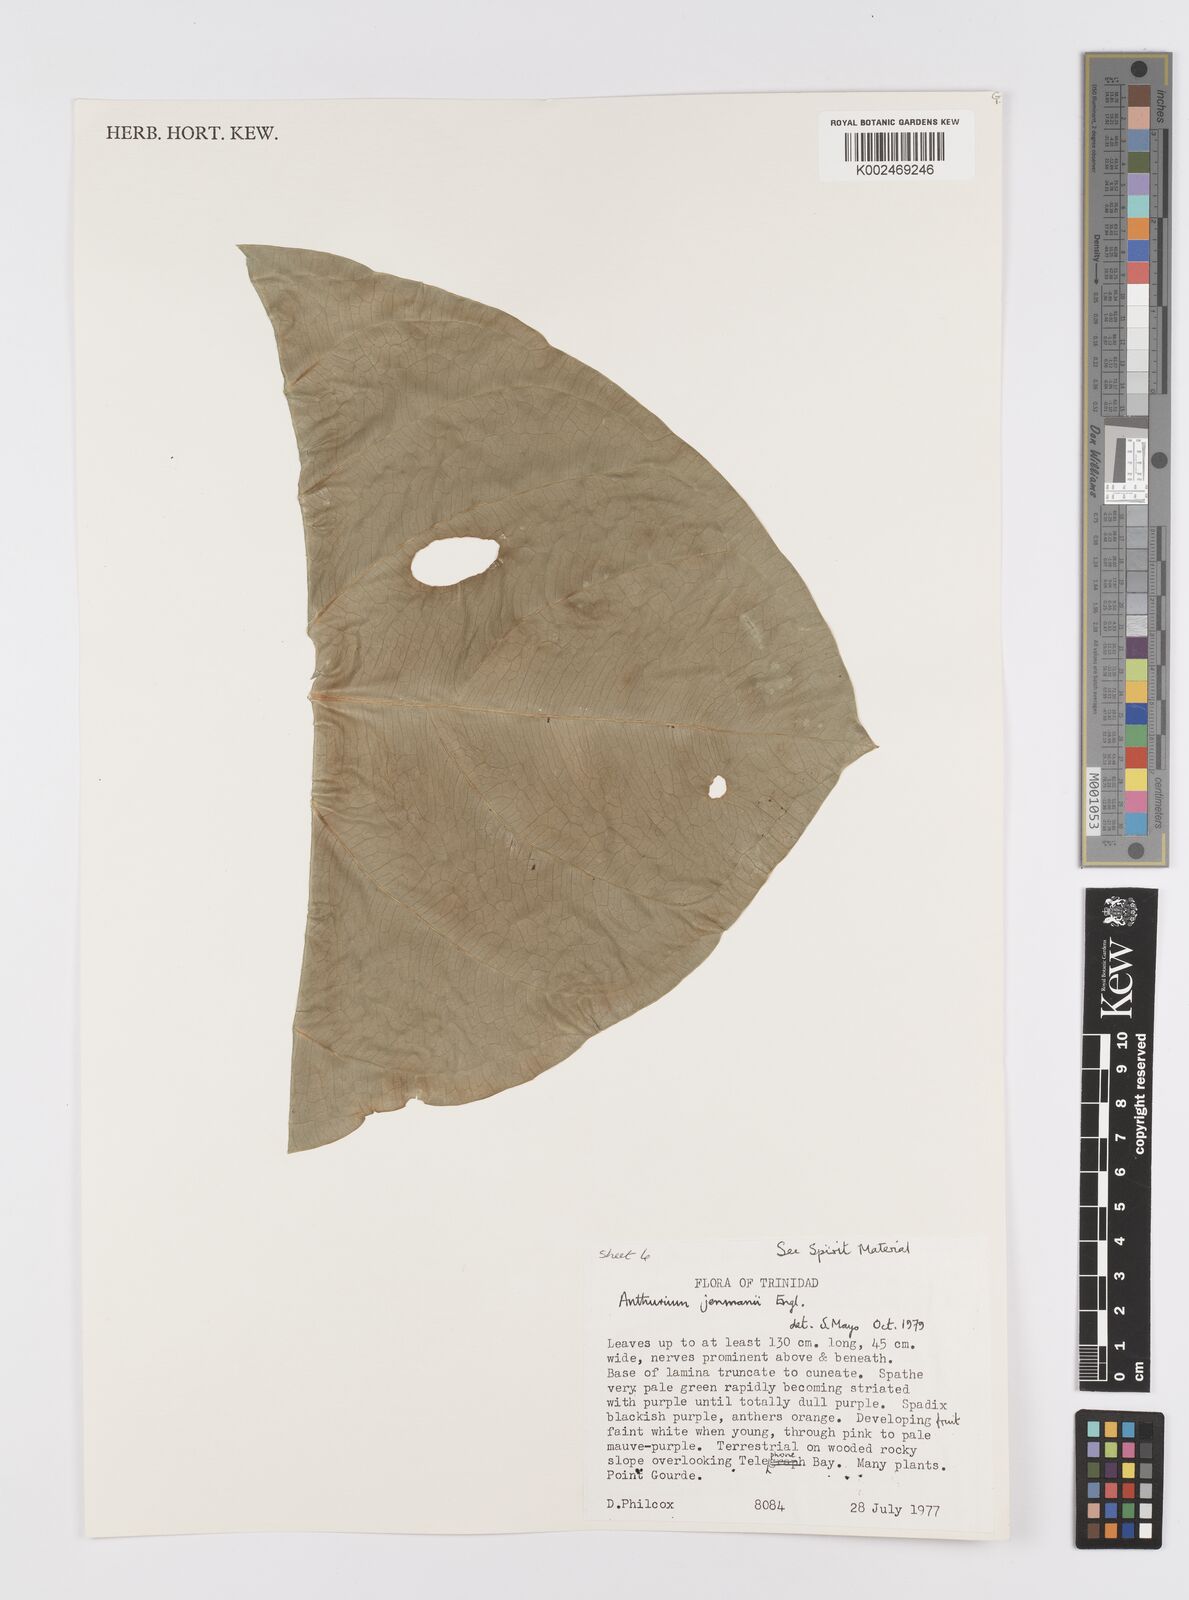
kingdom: Plantae
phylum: Tracheophyta
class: Liliopsida
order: Alismatales
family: Araceae
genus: Anthurium
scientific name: Anthurium jenmanii
